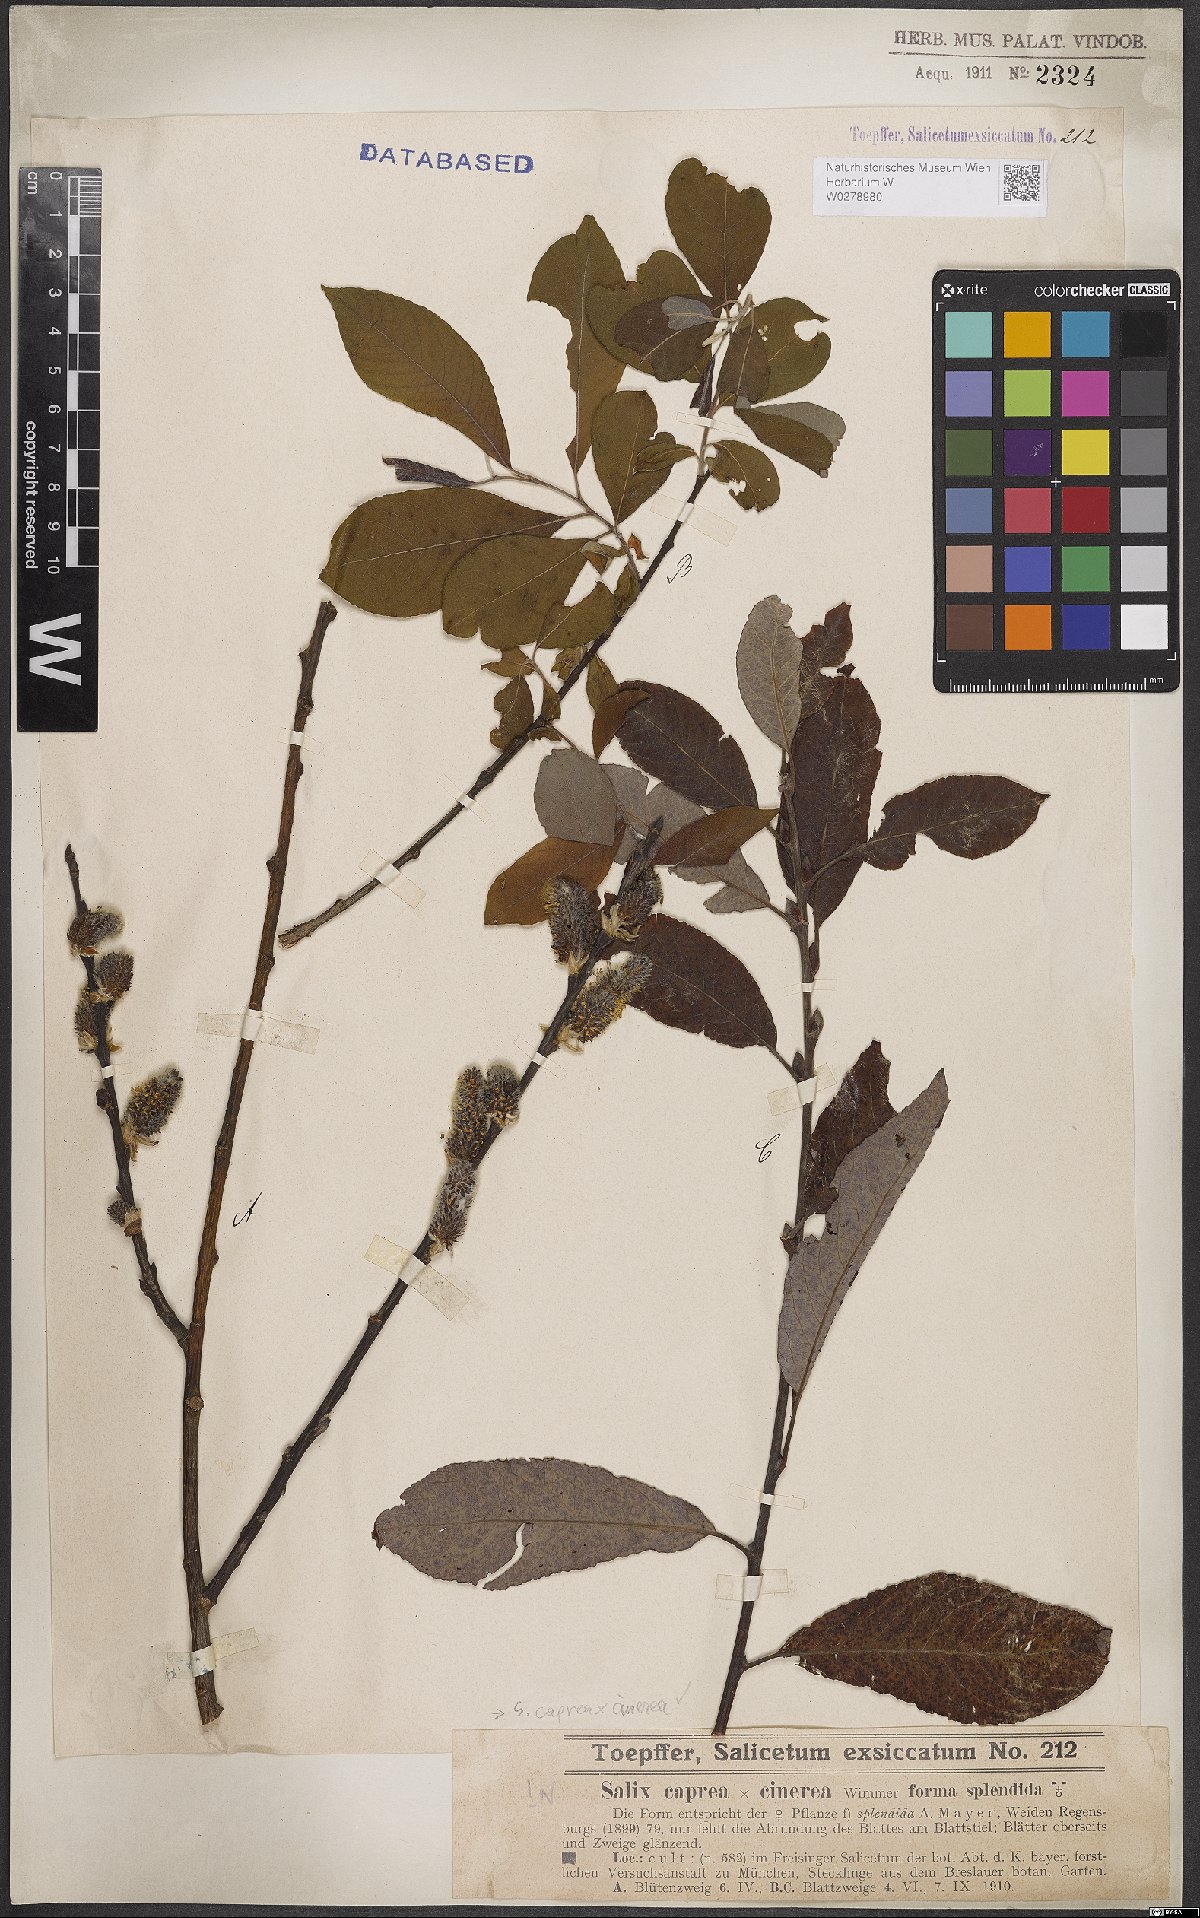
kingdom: Plantae
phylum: Tracheophyta
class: Magnoliopsida
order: Malpighiales
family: Salicaceae
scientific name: Salicaceae
